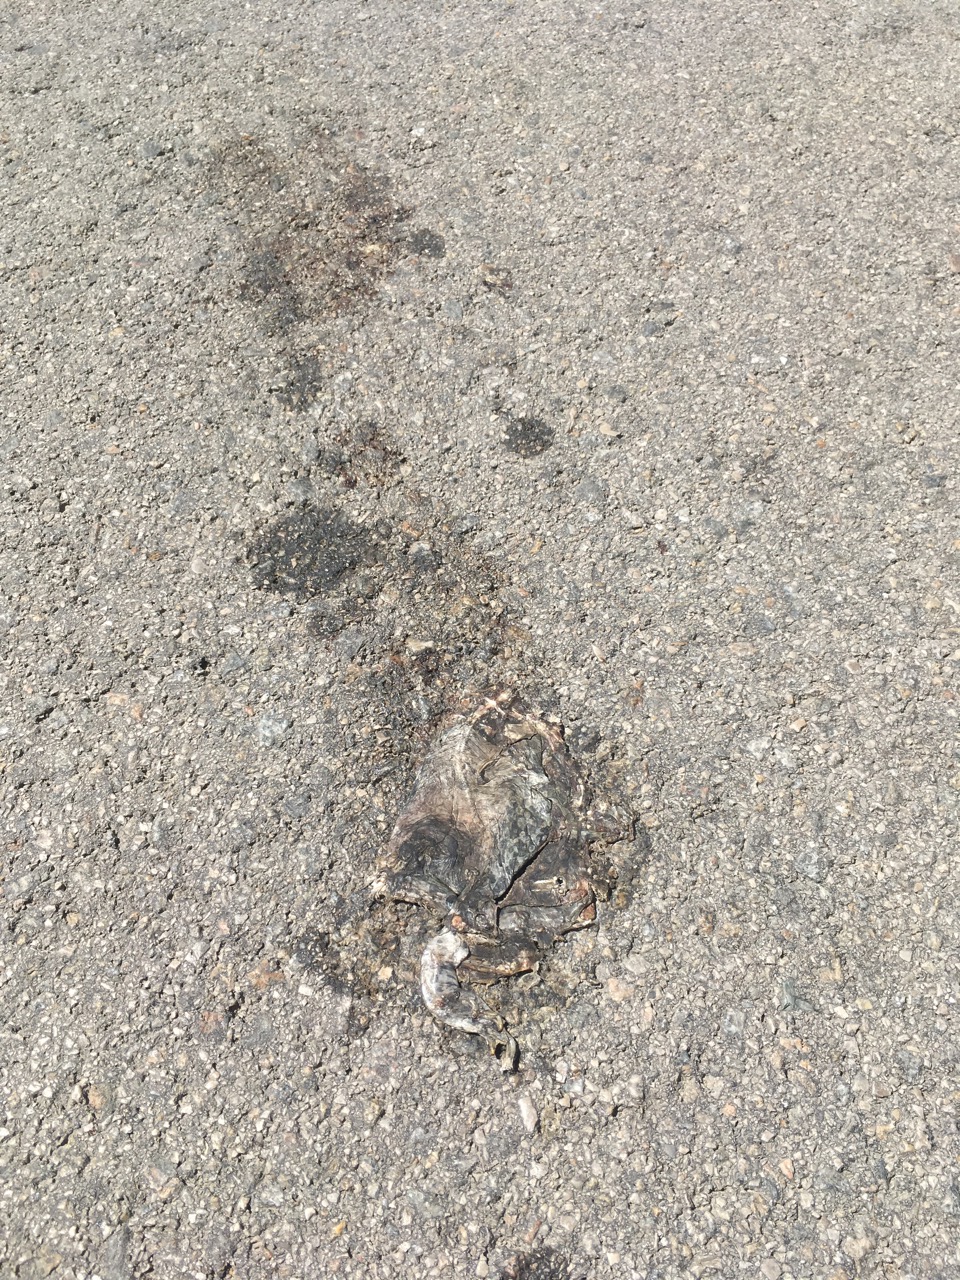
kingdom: Animalia
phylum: Chordata
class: Amphibia
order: Anura
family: Bufonidae
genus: Bufotes
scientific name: Bufotes viridis
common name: European green toad
